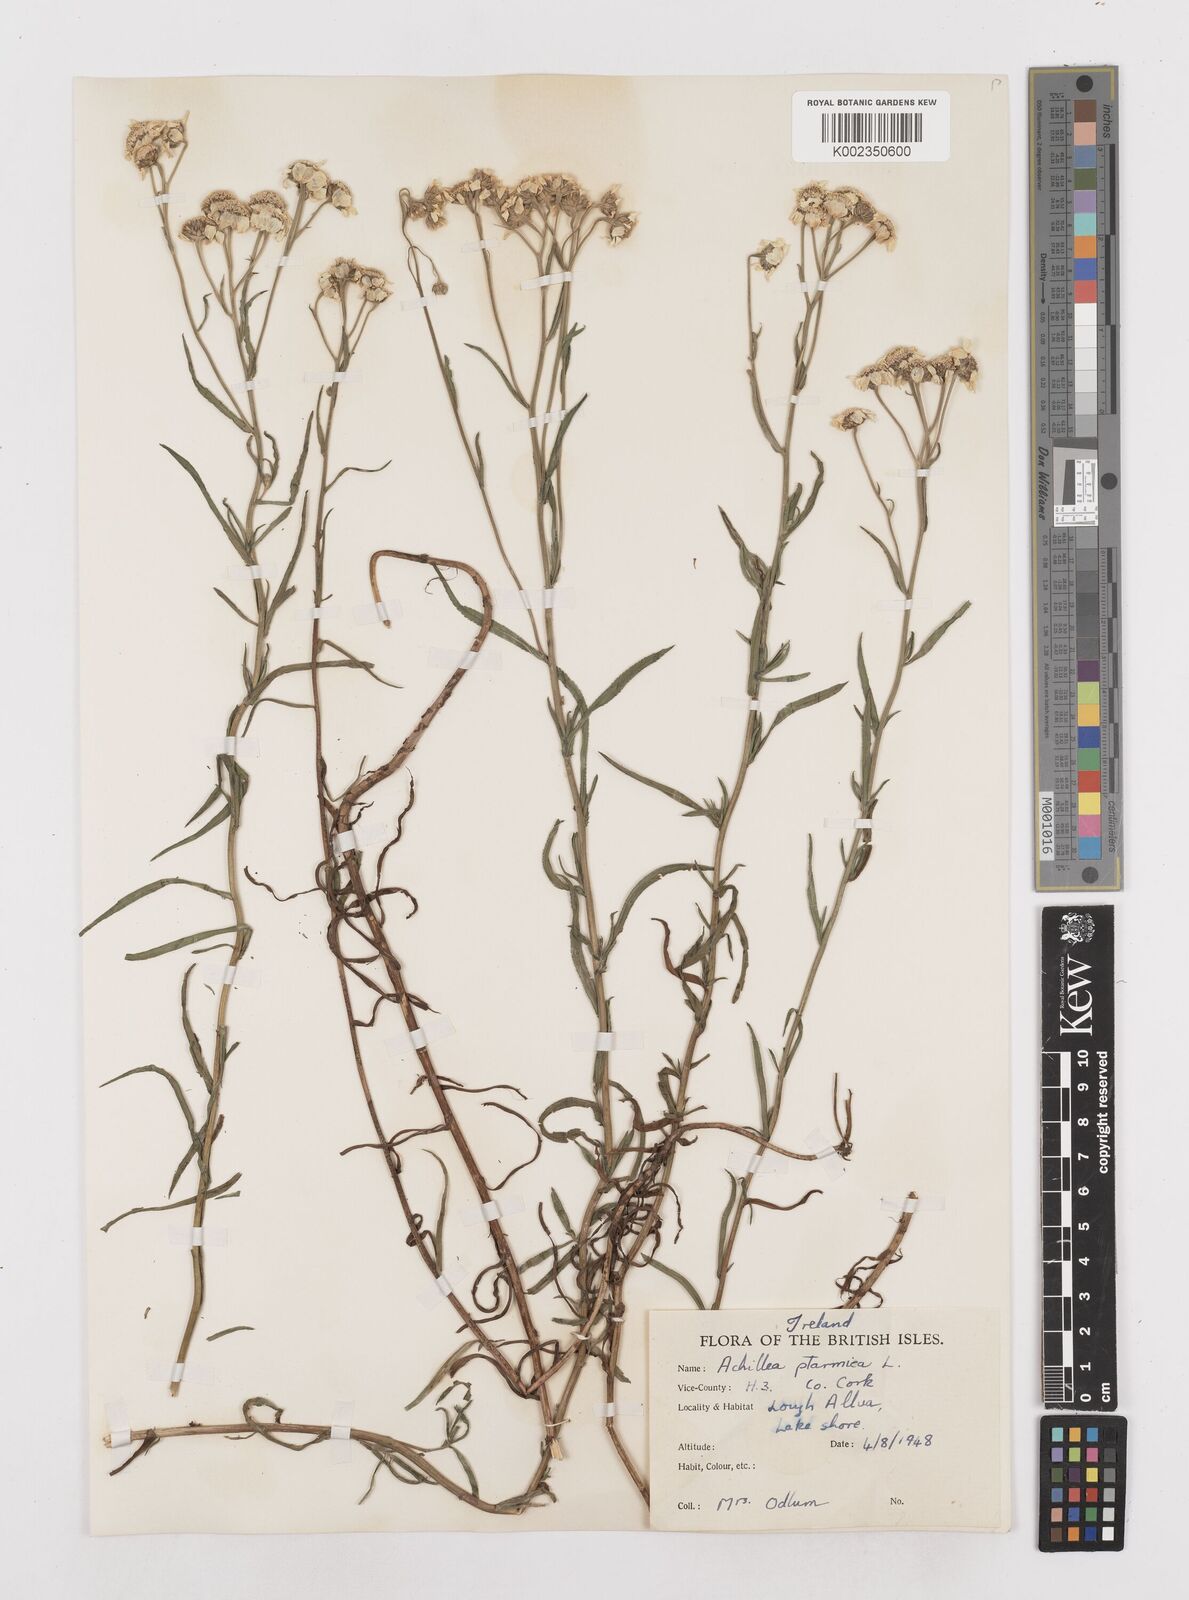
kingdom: Plantae
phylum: Tracheophyta
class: Magnoliopsida
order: Asterales
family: Asteraceae
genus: Achillea
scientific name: Achillea
